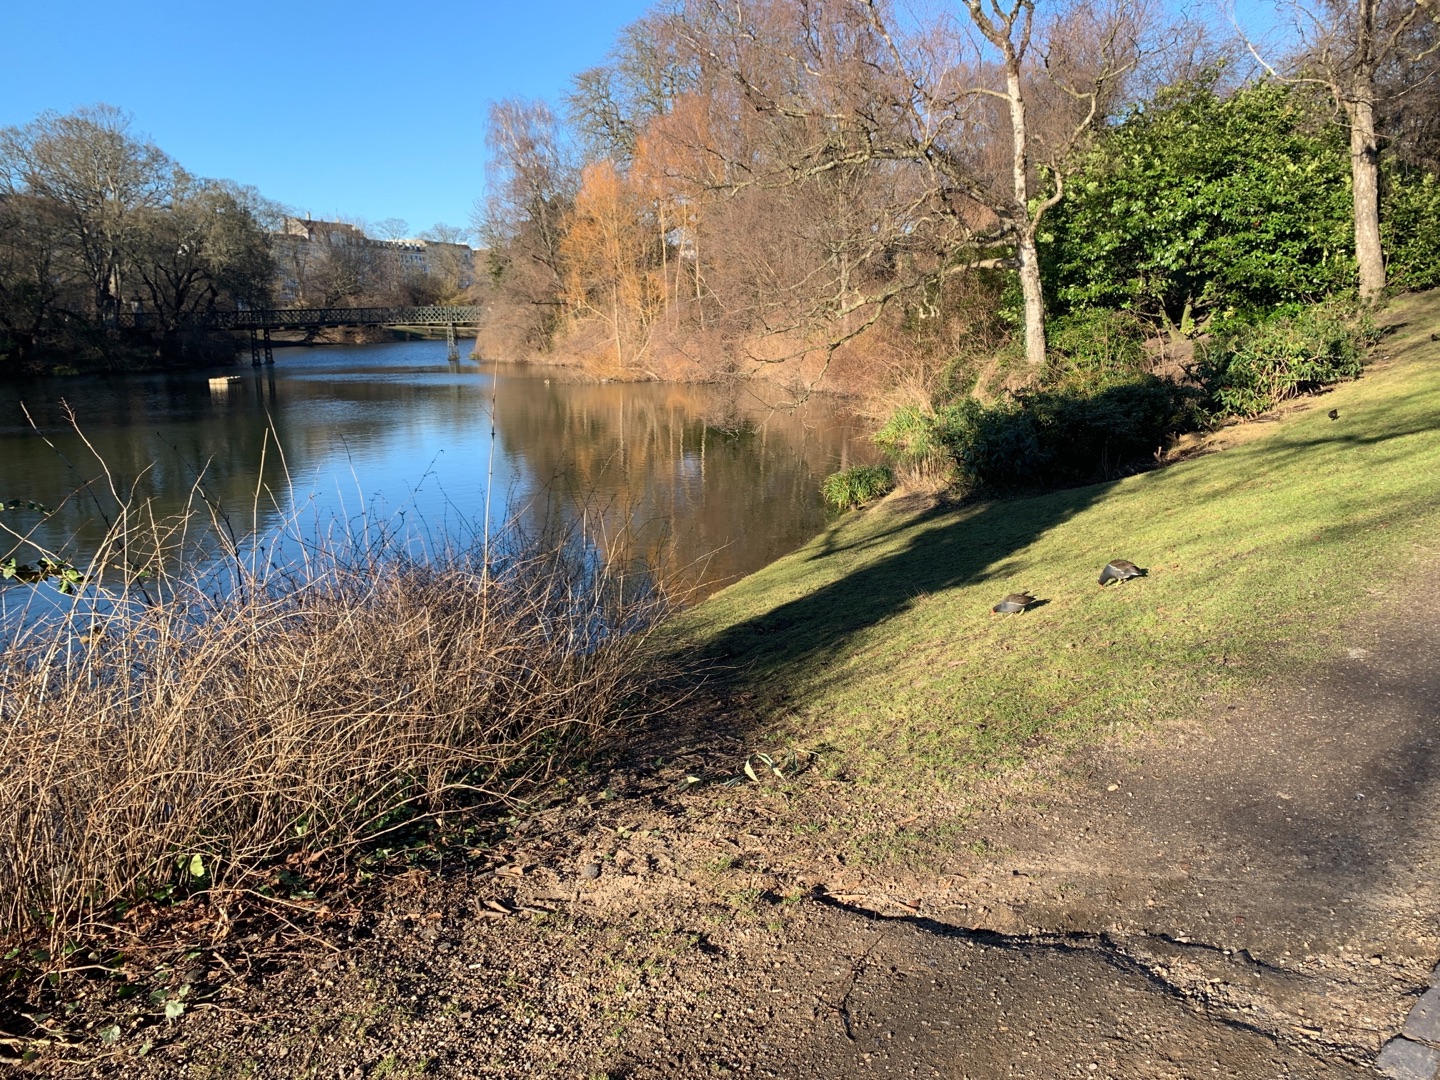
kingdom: Animalia
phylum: Chordata
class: Aves
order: Gruiformes
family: Rallidae
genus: Gallinula
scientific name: Gallinula chloropus
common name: Grønbenet rørhøne
